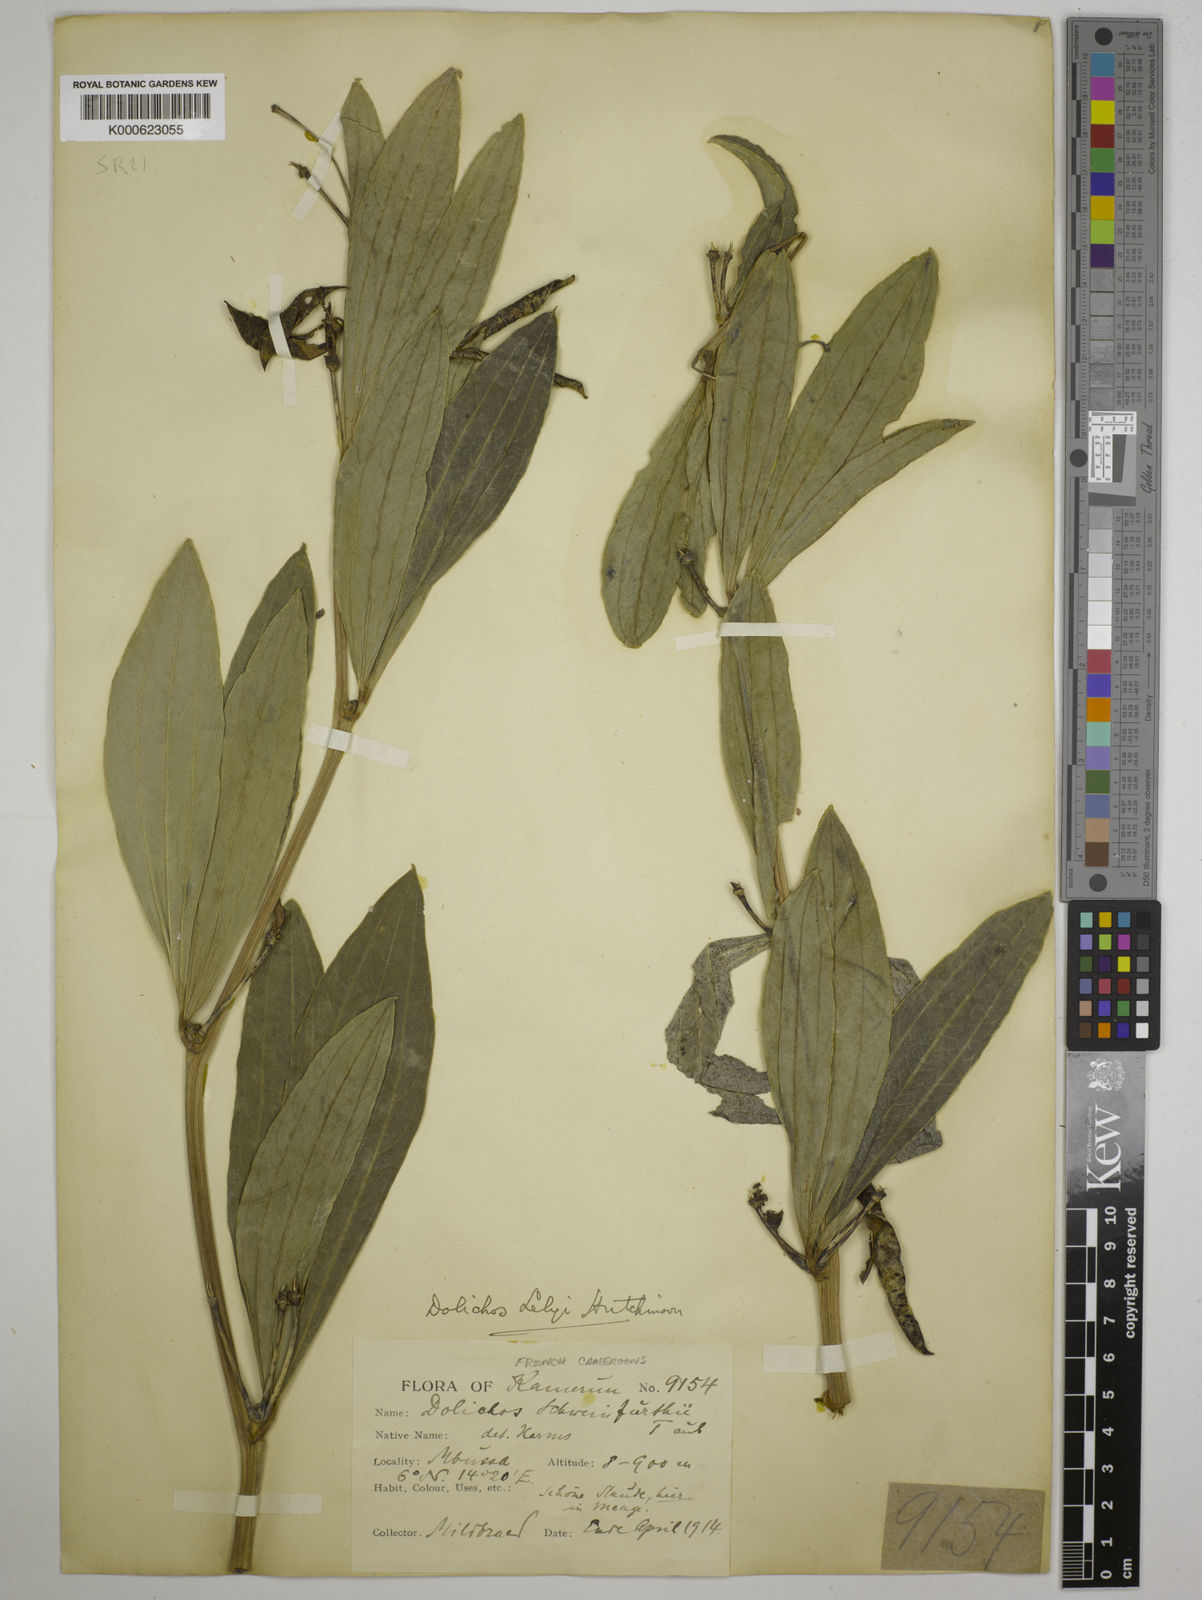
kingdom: Plantae
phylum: Tracheophyta
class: Magnoliopsida
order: Fabales
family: Fabaceae
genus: Dolichos
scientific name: Dolichos
